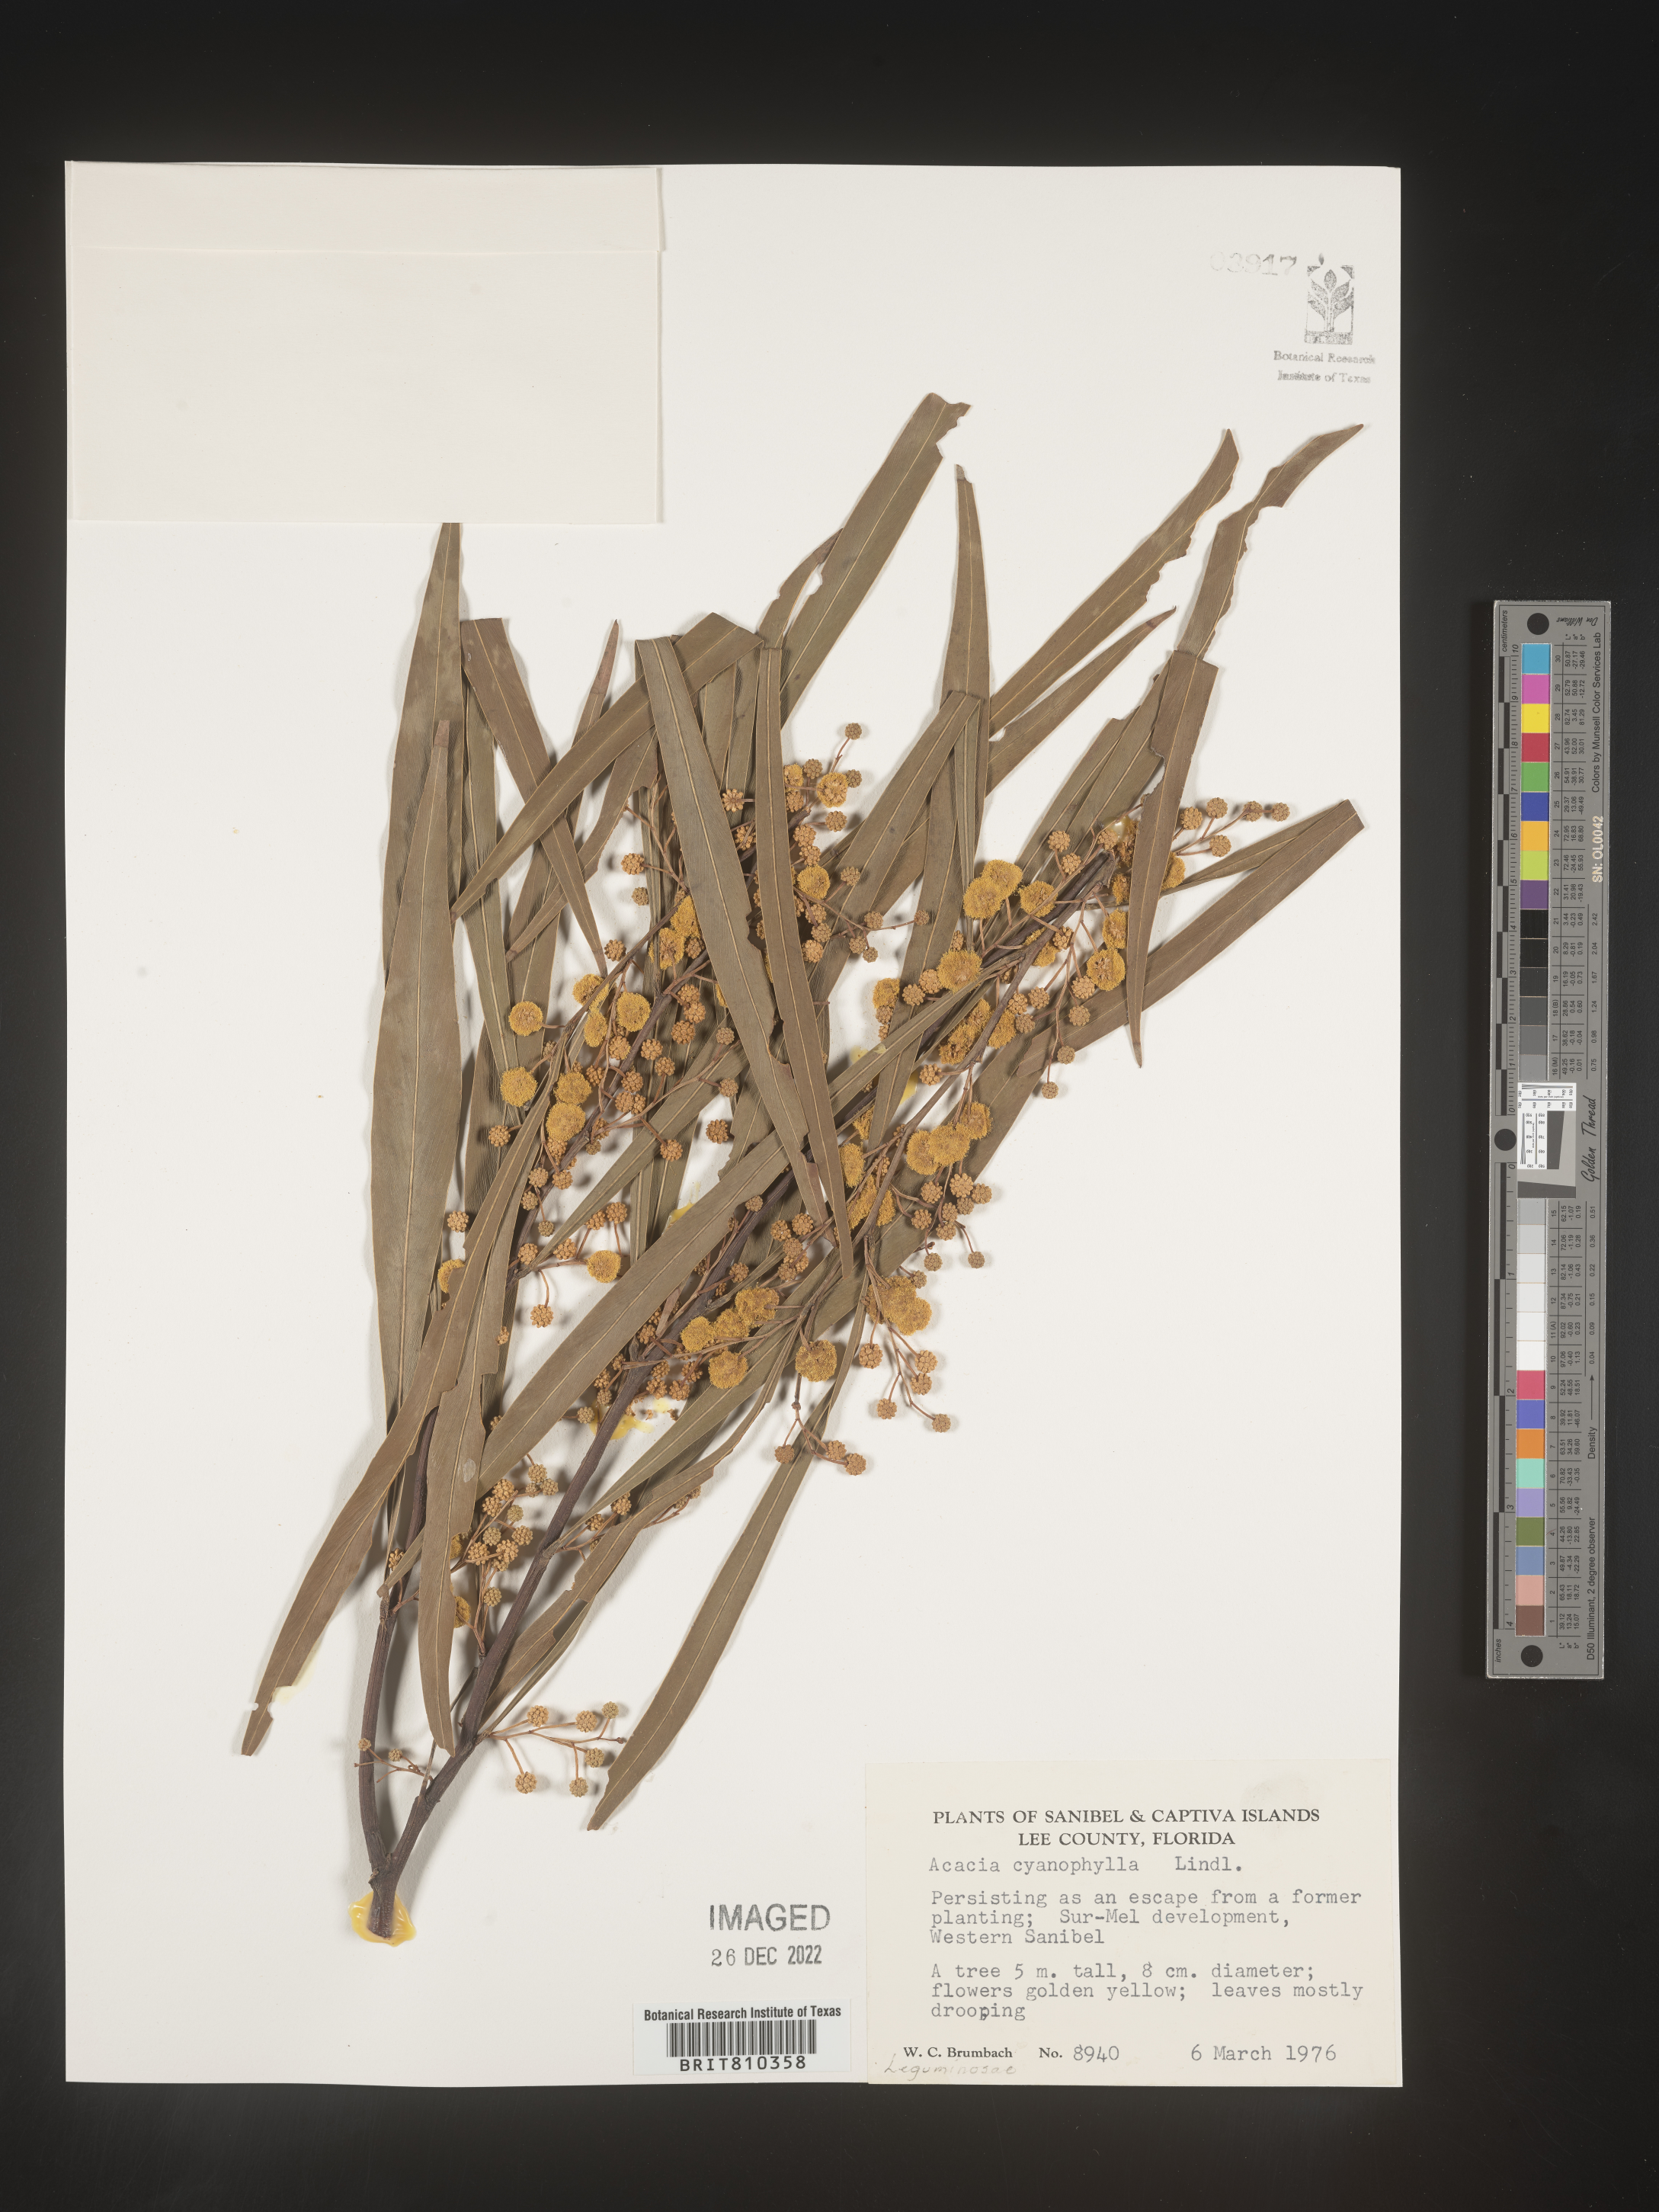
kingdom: Plantae
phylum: Tracheophyta
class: Magnoliopsida
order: Fabales
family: Fabaceae
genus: Acacia
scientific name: Acacia
